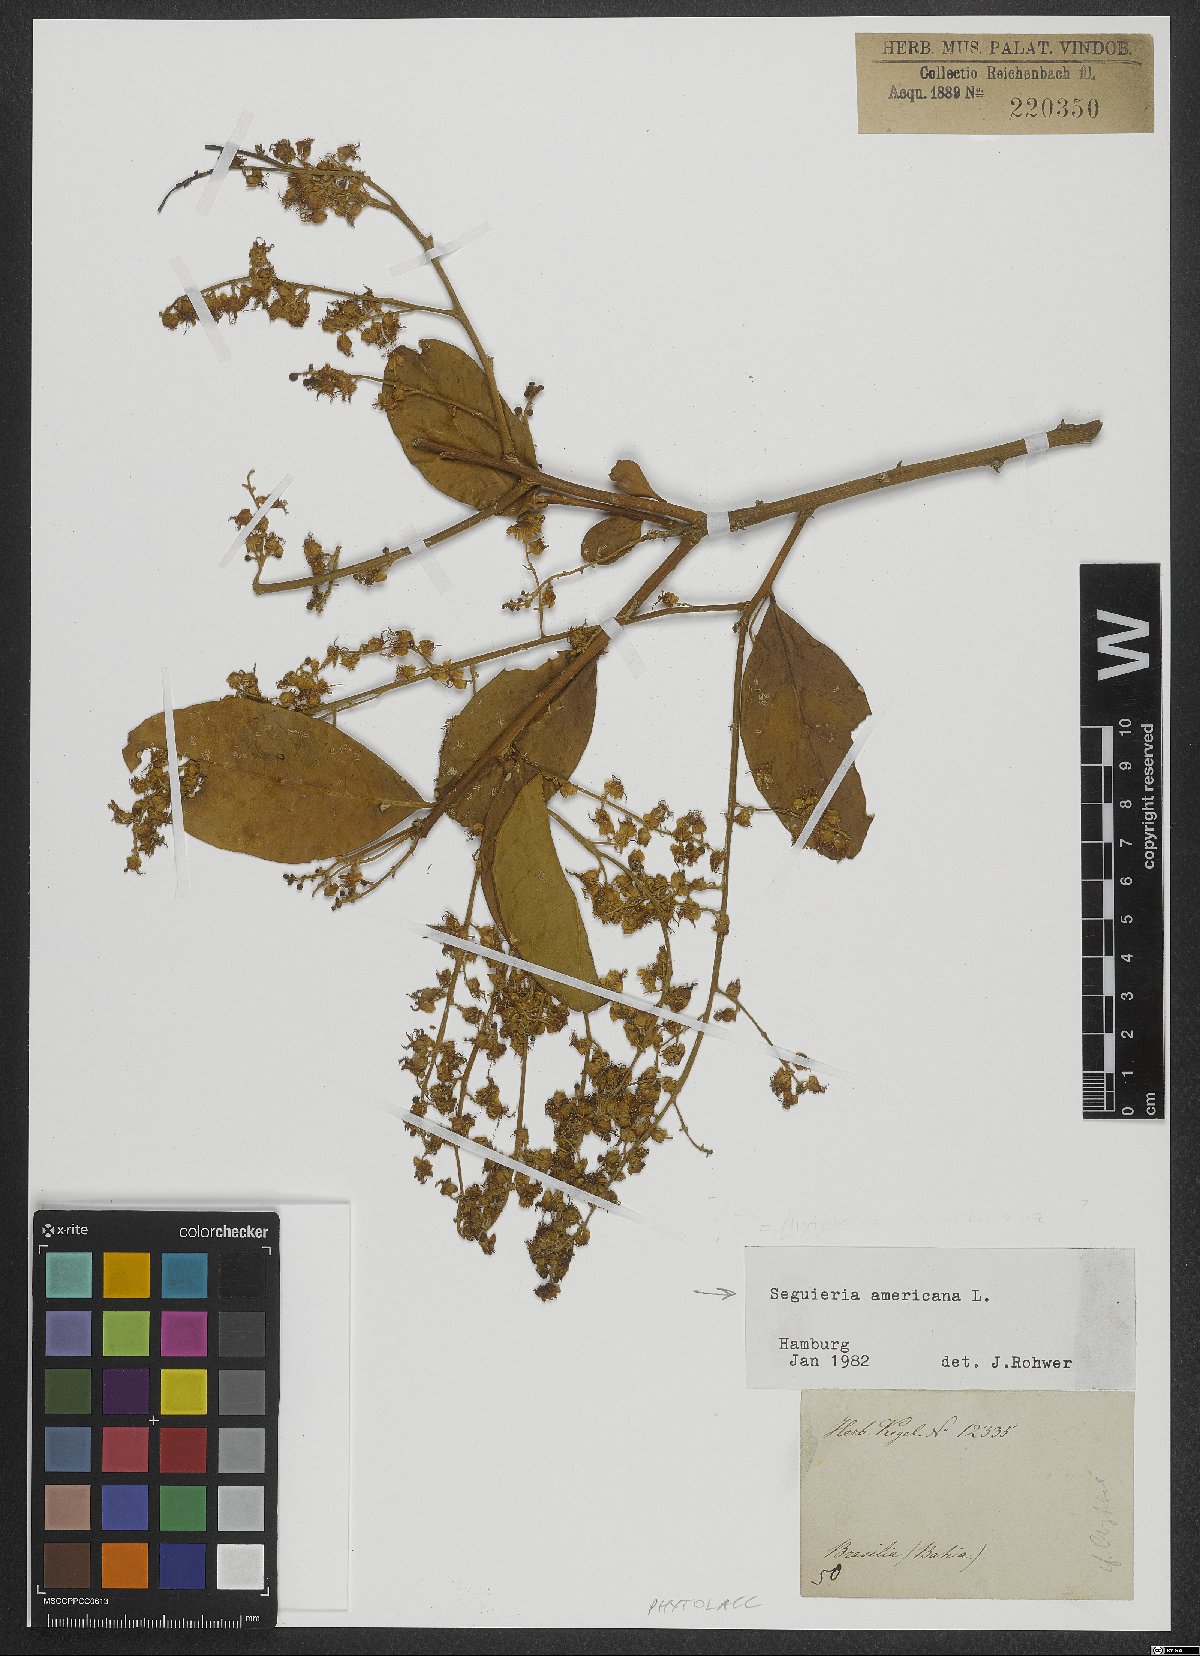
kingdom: Plantae
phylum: Tracheophyta
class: Magnoliopsida
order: Caryophyllales
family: Phytolaccaceae
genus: Seguieria
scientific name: Seguieria americana
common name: American seguieria
